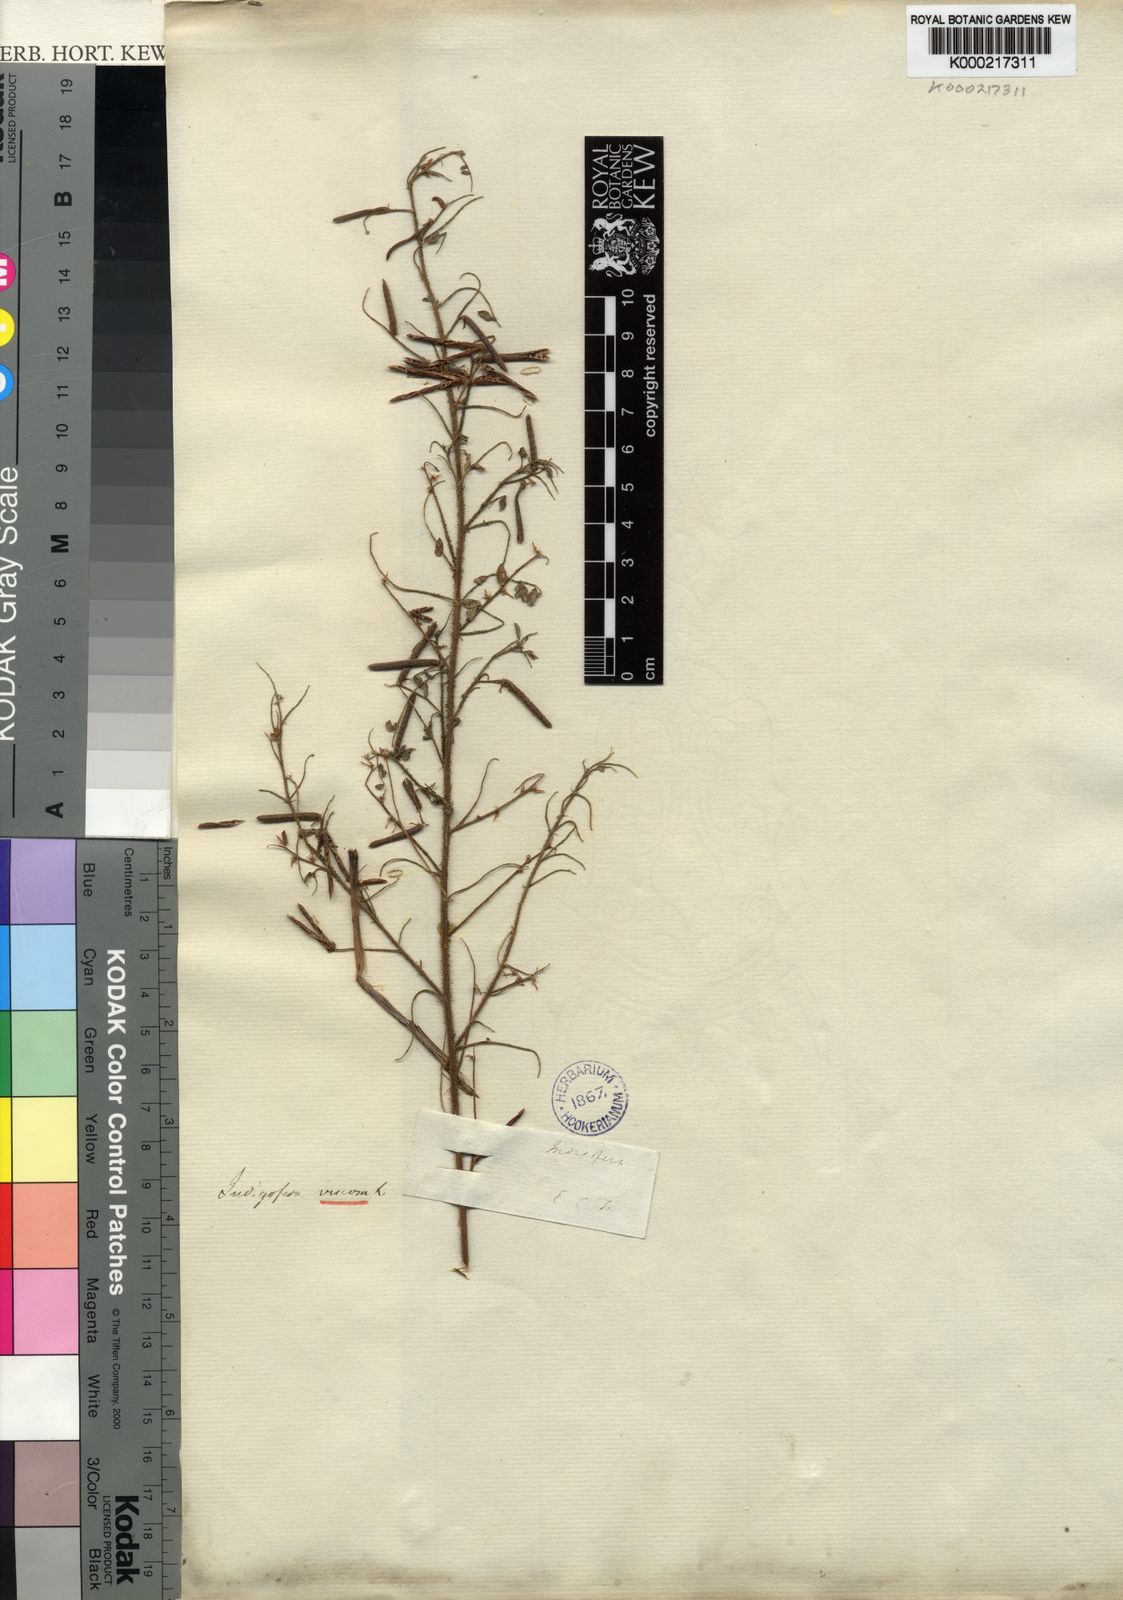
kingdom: Plantae
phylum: Tracheophyta
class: Magnoliopsida
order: Fabales
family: Fabaceae
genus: Indigofera
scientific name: Indigofera colutea
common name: Rusty indigo
